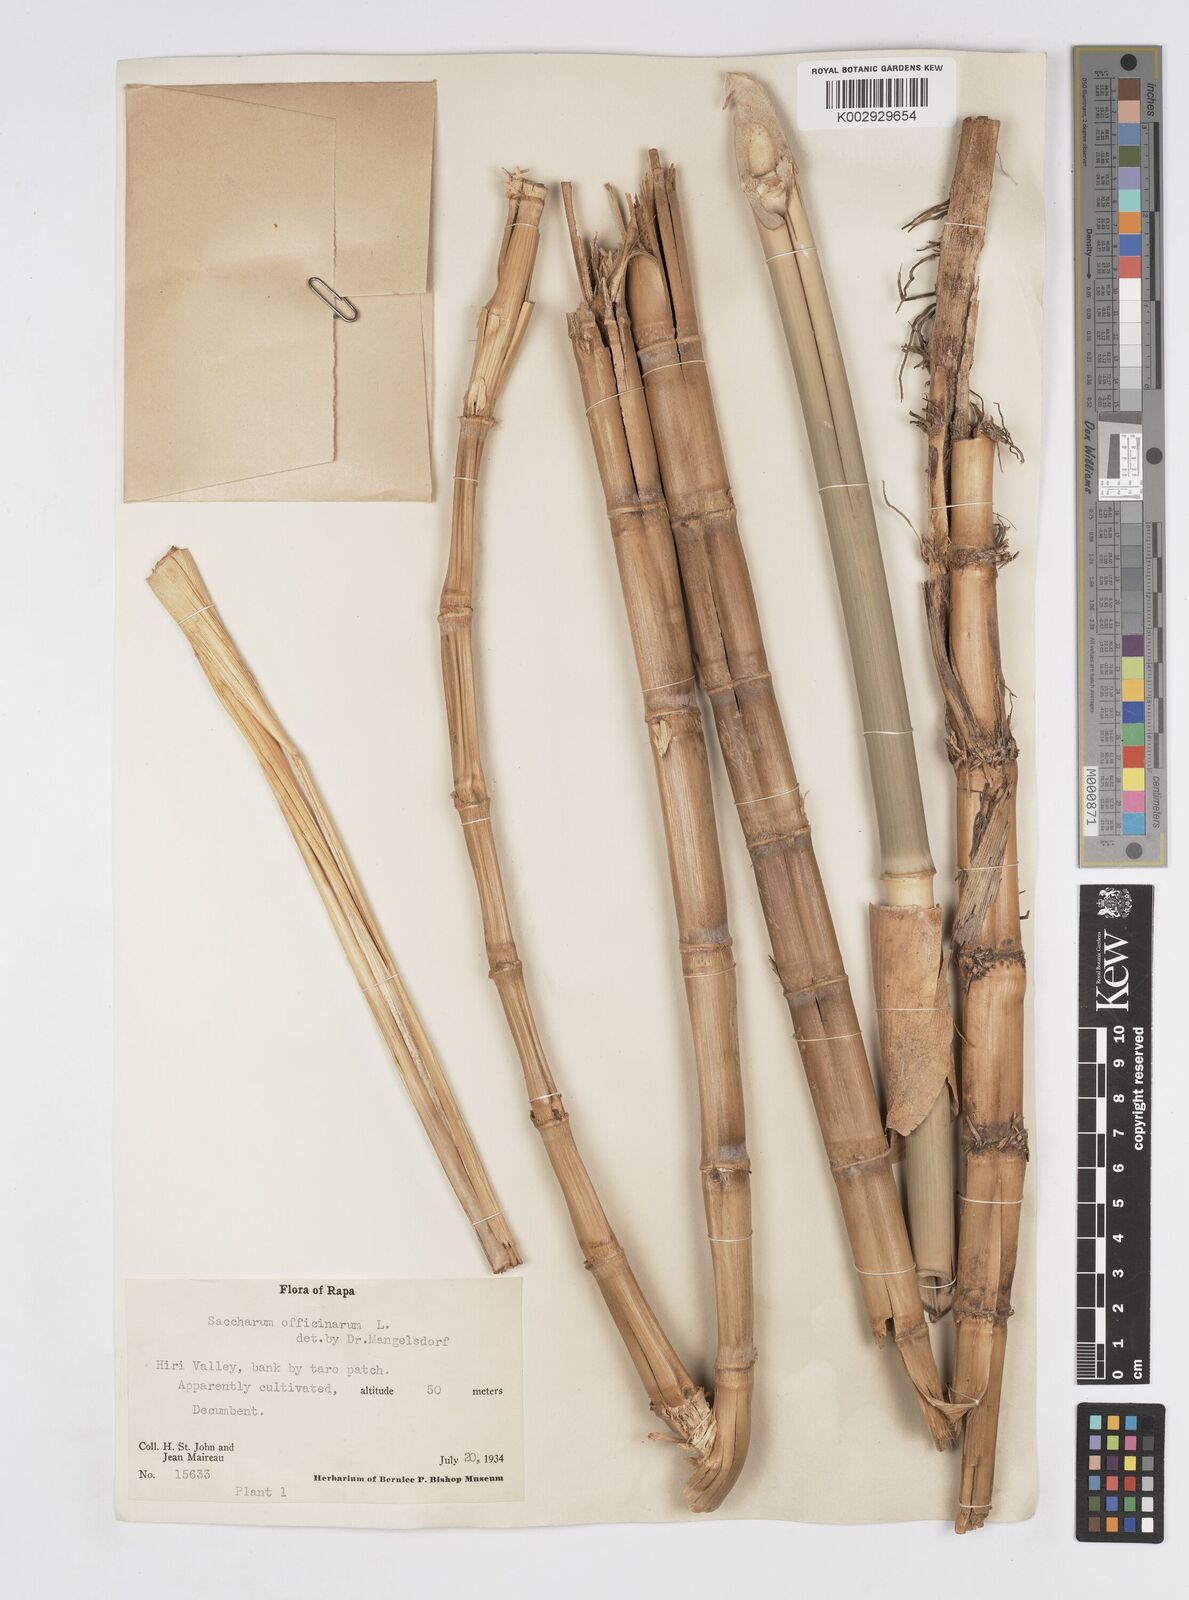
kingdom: Plantae
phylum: Tracheophyta
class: Liliopsida
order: Poales
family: Poaceae
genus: Saccharum
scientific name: Saccharum officinarum
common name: Sugarcane
